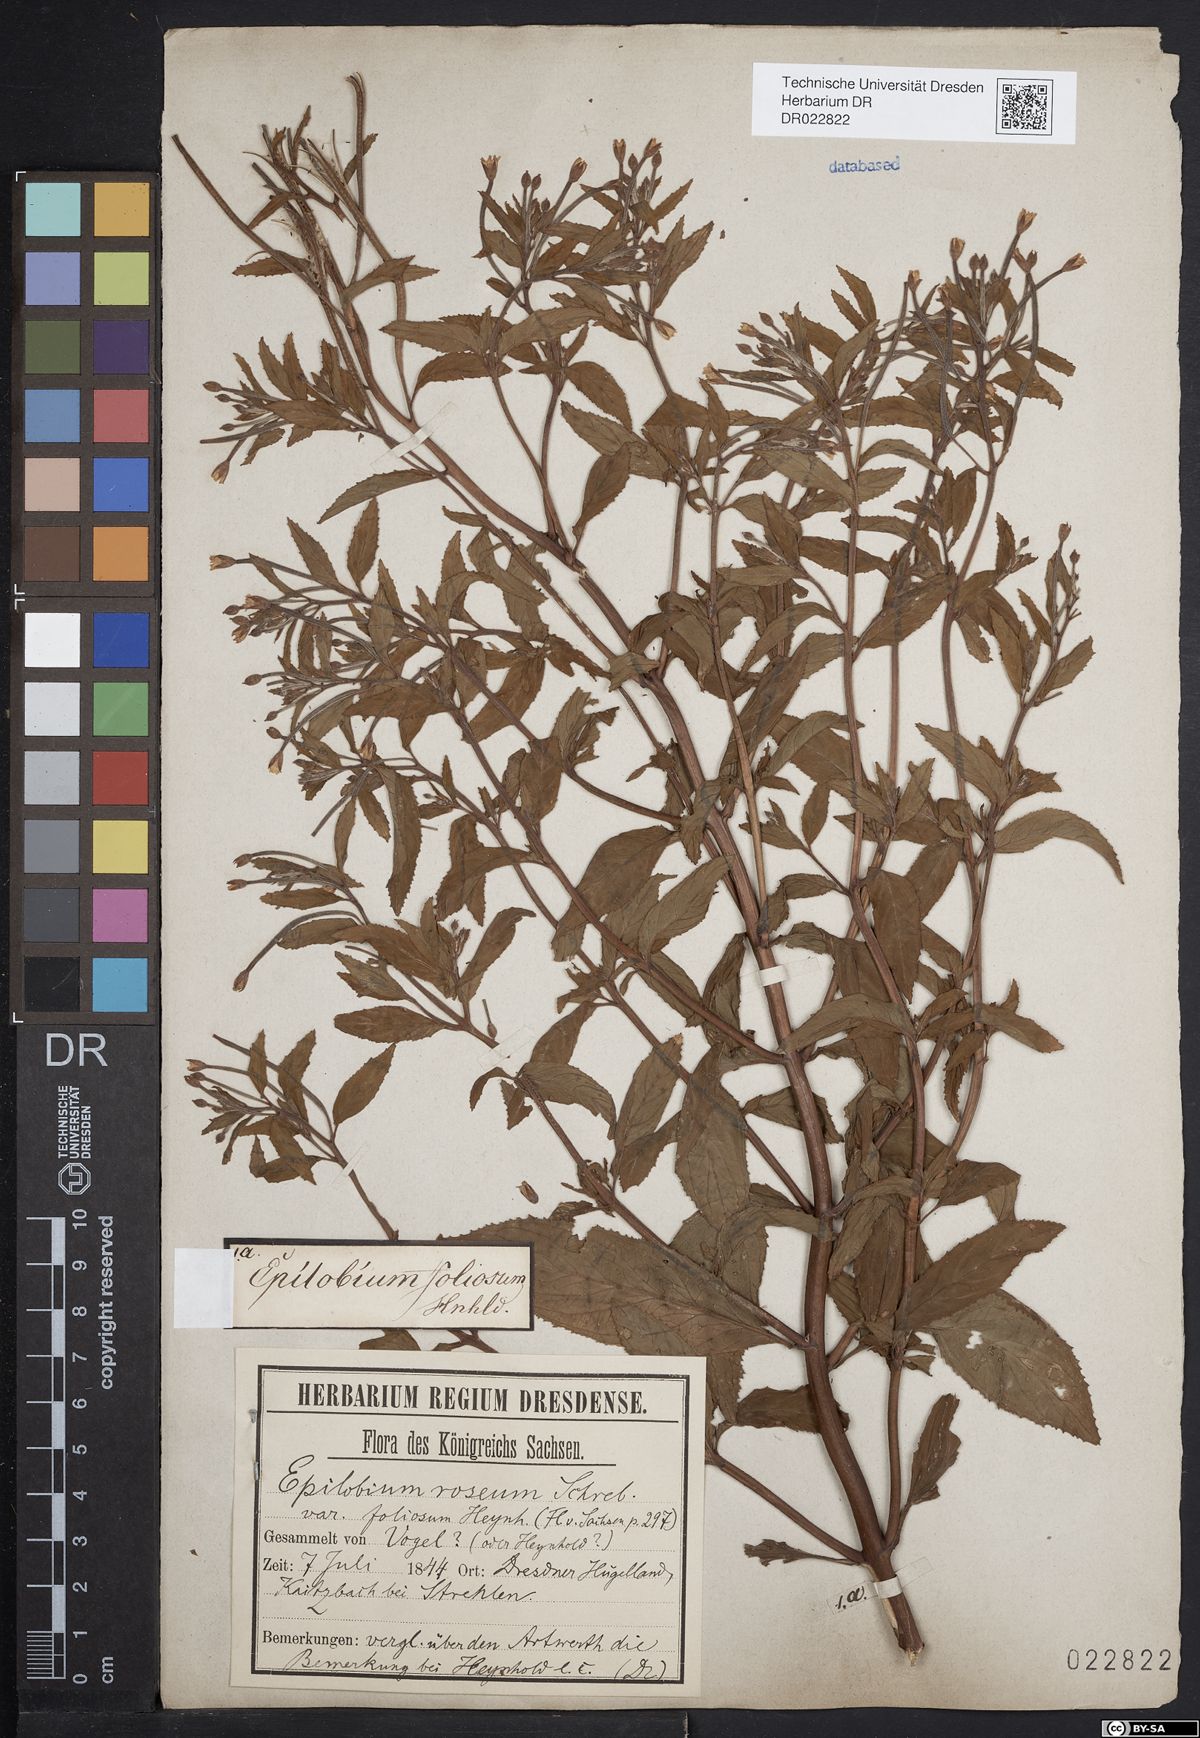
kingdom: Plantae
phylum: Tracheophyta
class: Magnoliopsida
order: Myrtales
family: Onagraceae
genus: Epilobium
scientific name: Epilobium roseum
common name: Pale willowherb
